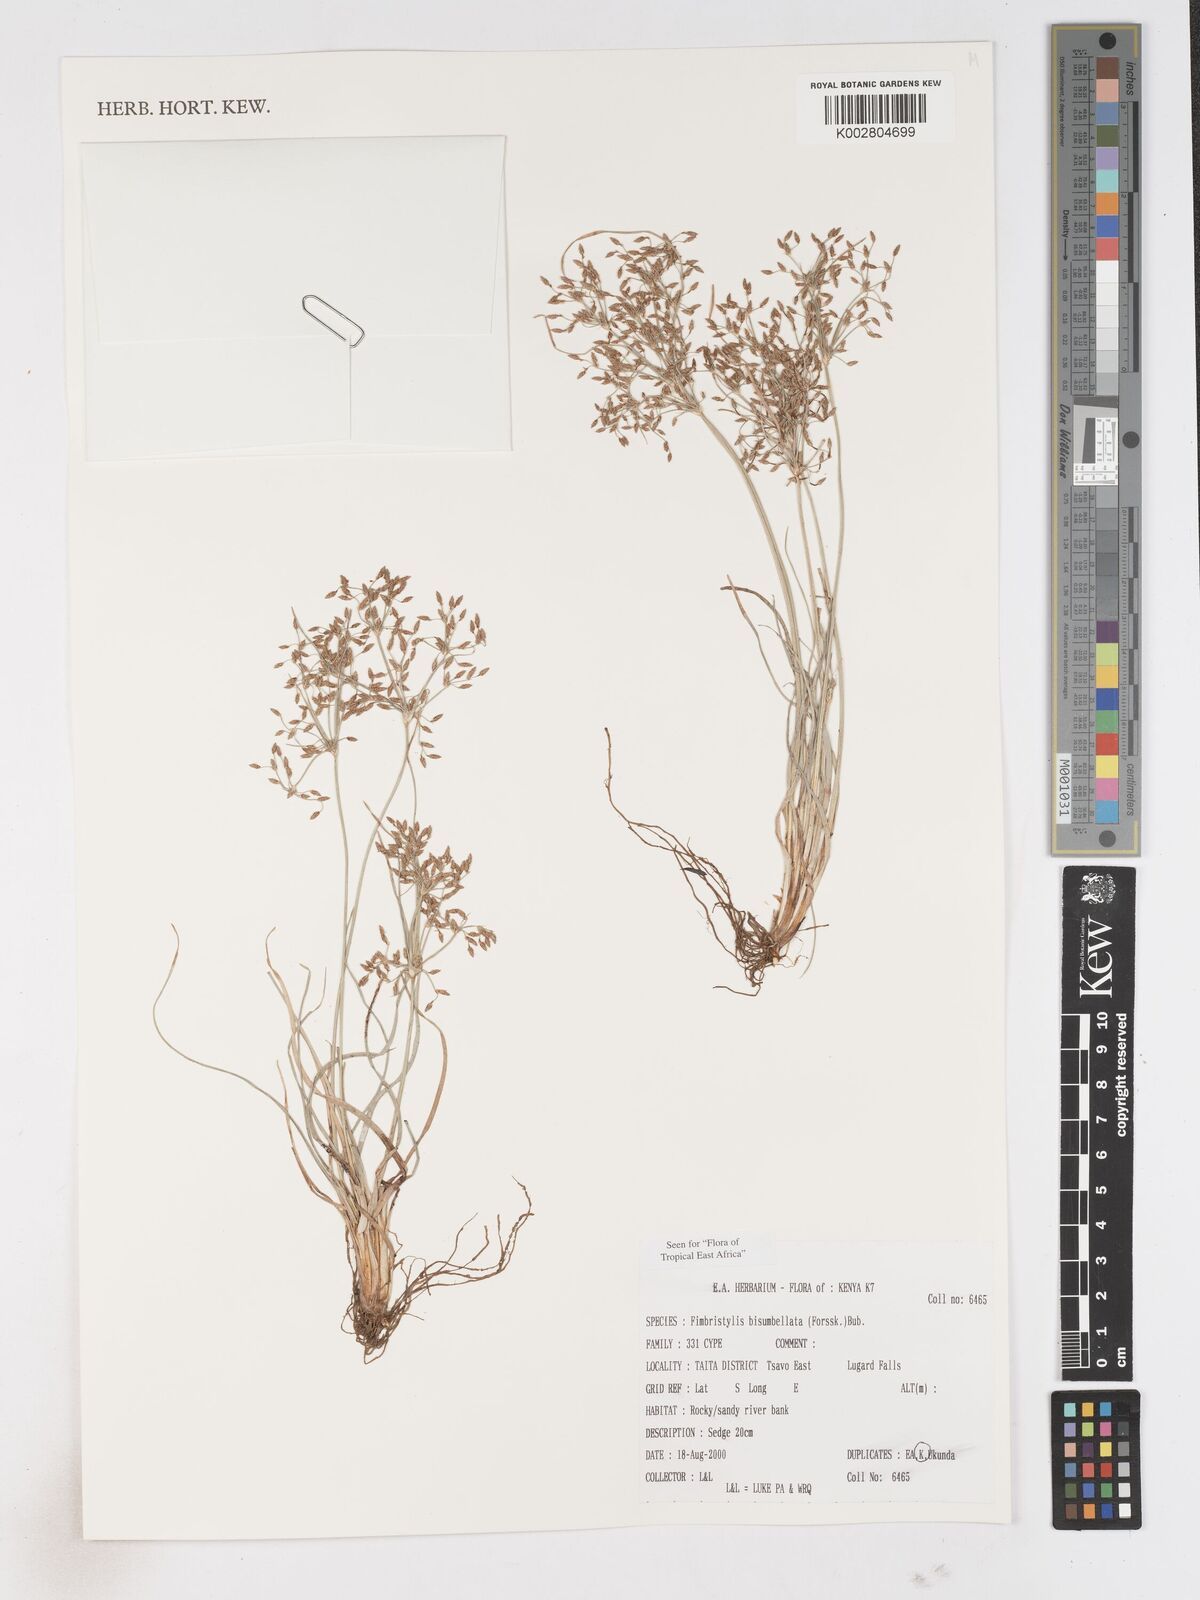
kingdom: Plantae
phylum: Tracheophyta
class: Liliopsida
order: Poales
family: Cyperaceae
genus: Fimbristylis
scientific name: Fimbristylis bisumbellata
